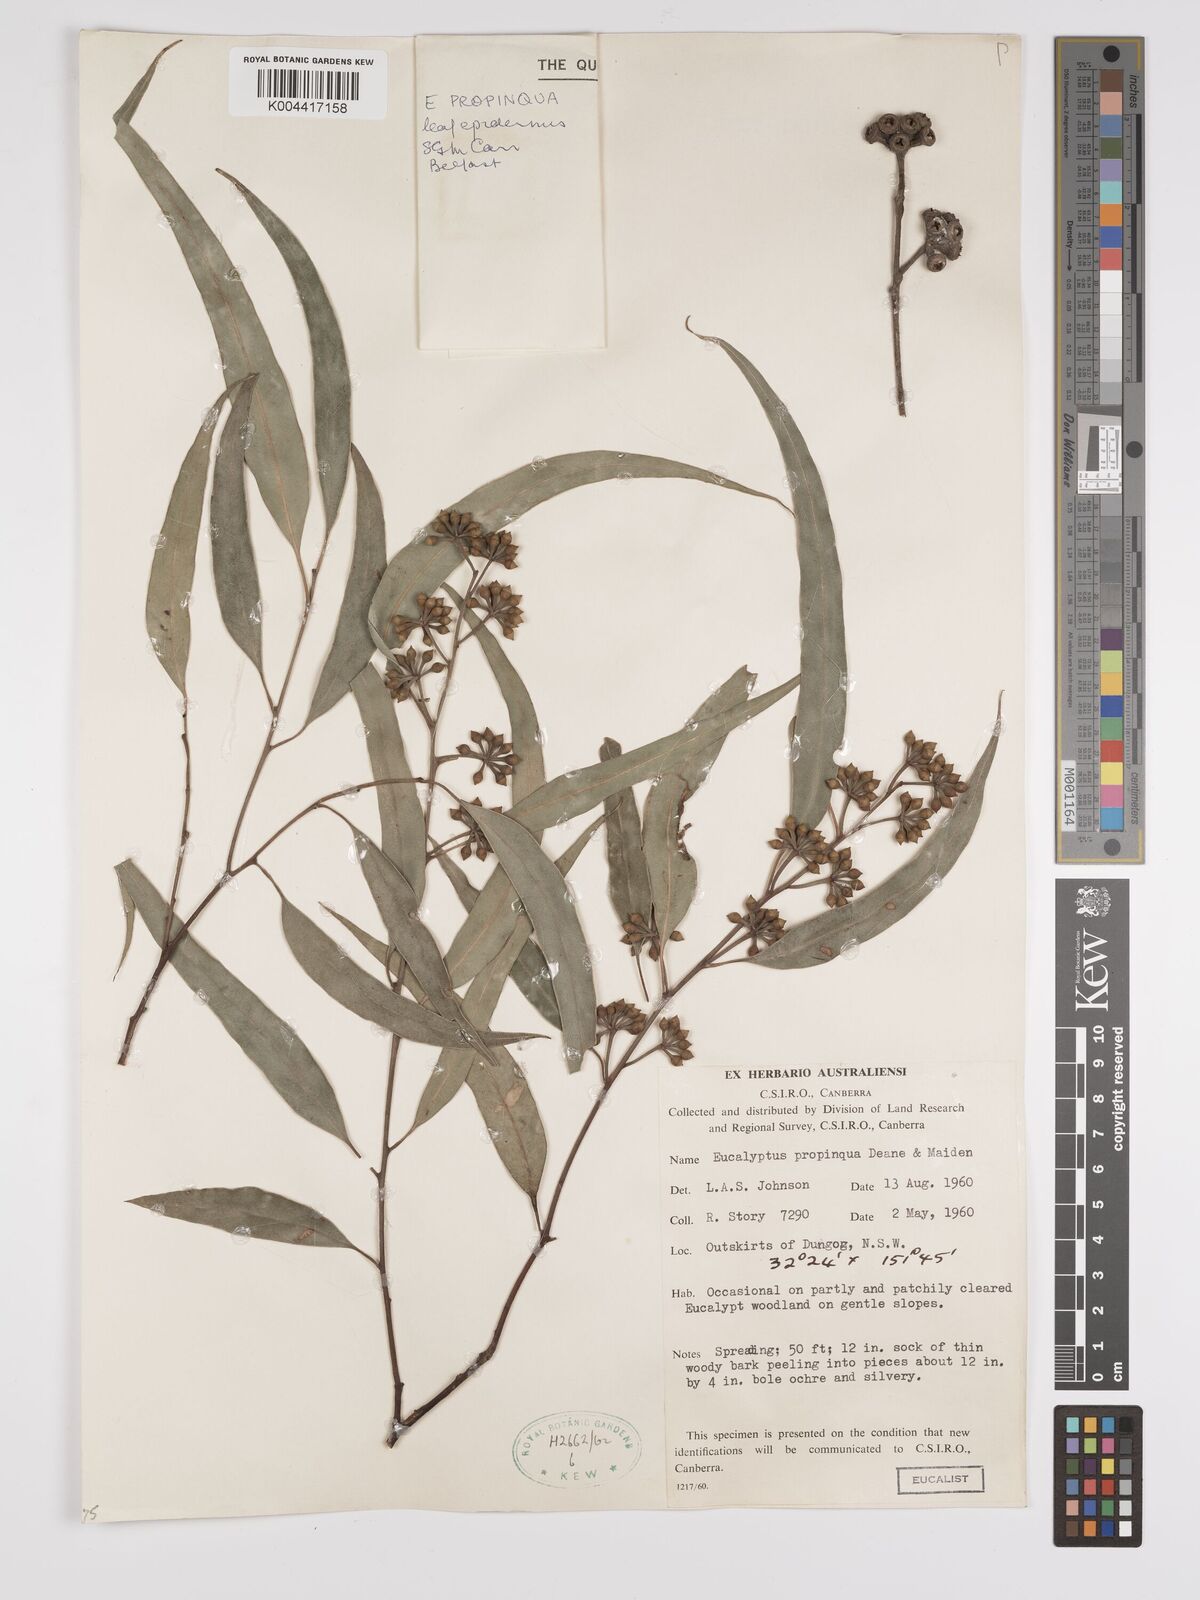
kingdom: Plantae
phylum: Tracheophyta
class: Magnoliopsida
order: Myrtales
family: Myrtaceae
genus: Eucalyptus
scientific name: Eucalyptus propinqua
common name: Grey-gum
